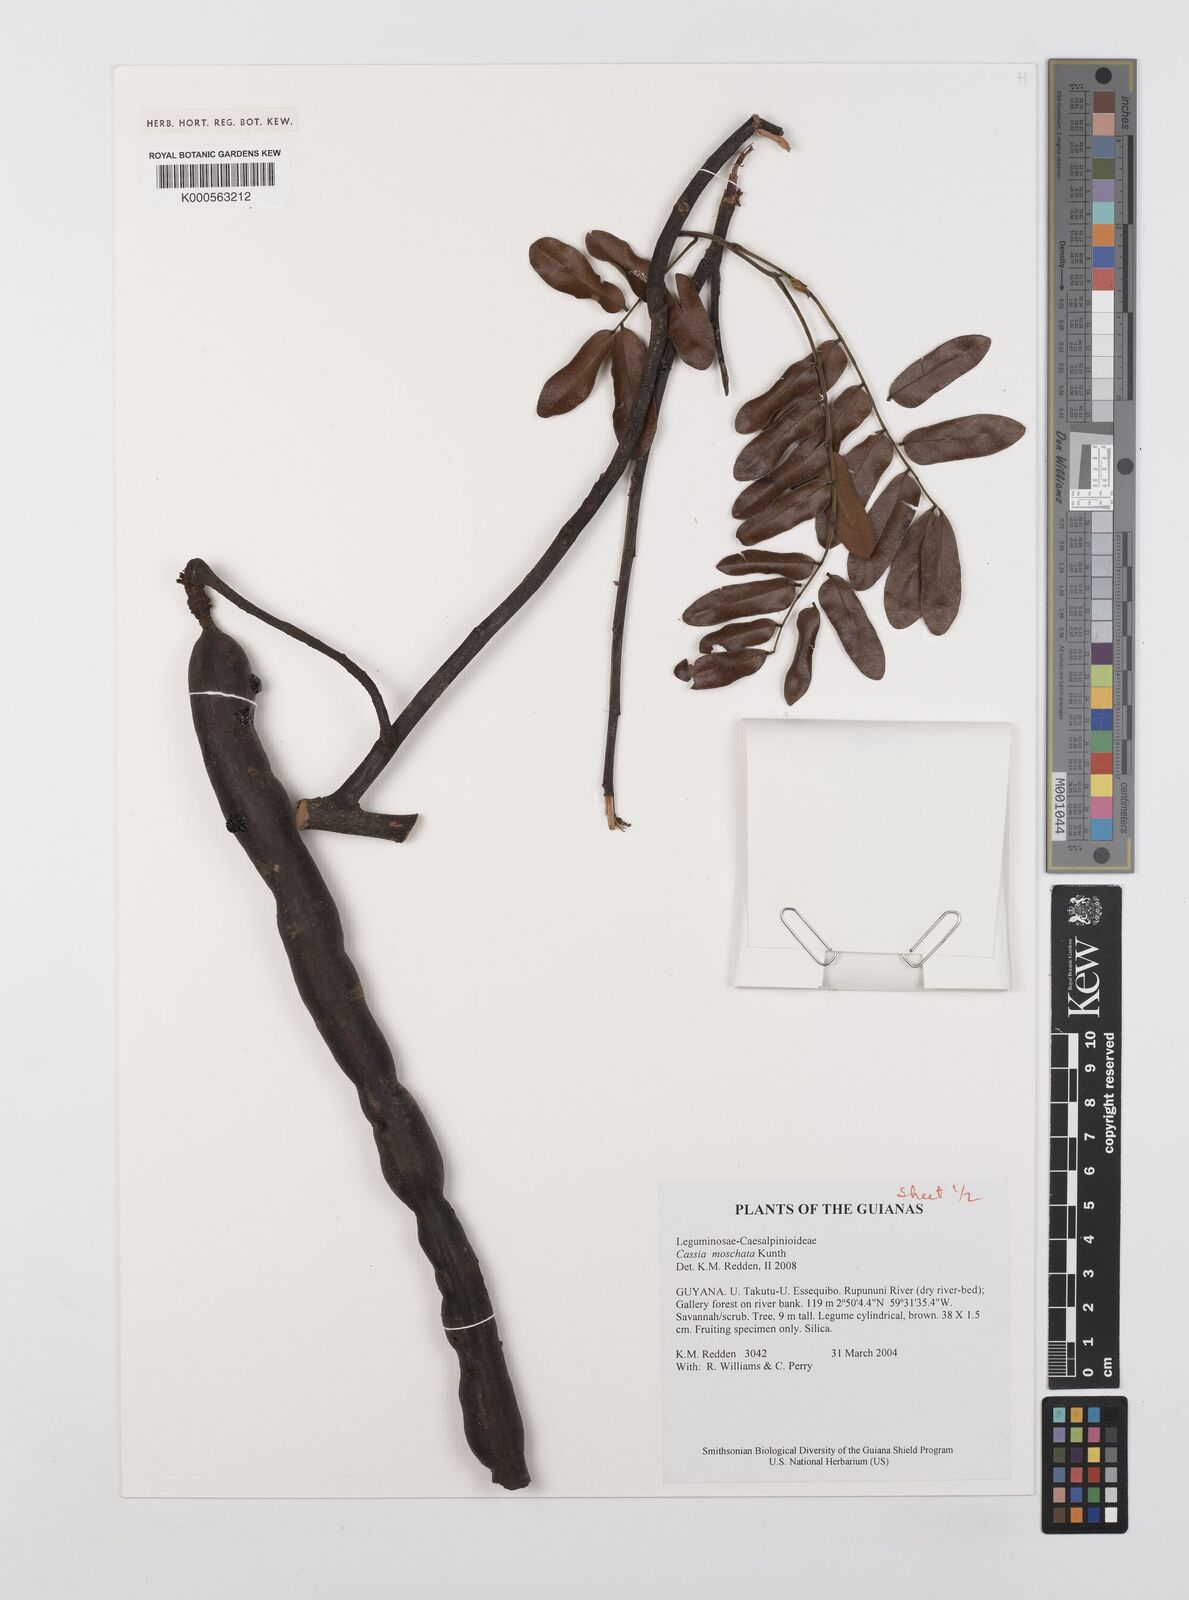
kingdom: Plantae
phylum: Tracheophyta
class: Magnoliopsida
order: Fabales
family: Fabaceae
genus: Cassia
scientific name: Cassia moschata
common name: Bronze shower tree
